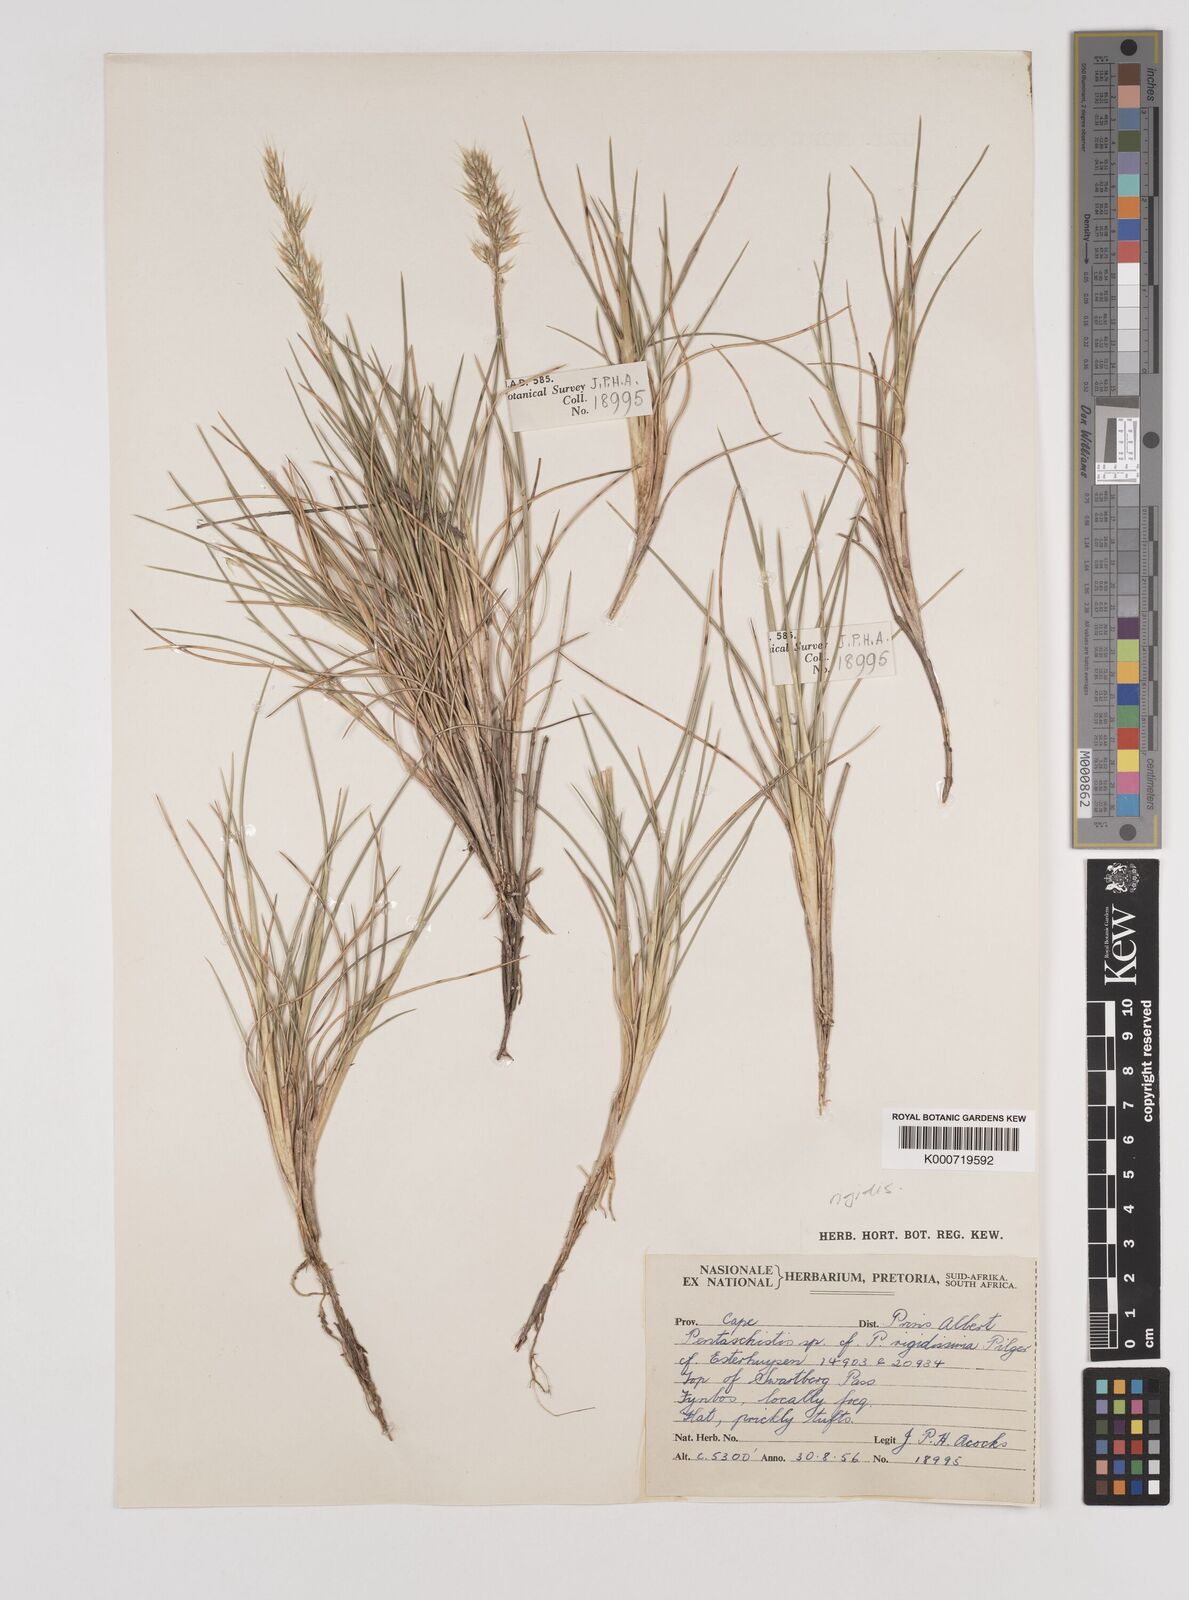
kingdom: Plantae
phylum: Tracheophyta
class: Liliopsida
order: Poales
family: Poaceae
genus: Pentameris
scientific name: Pentameris rigidissima
